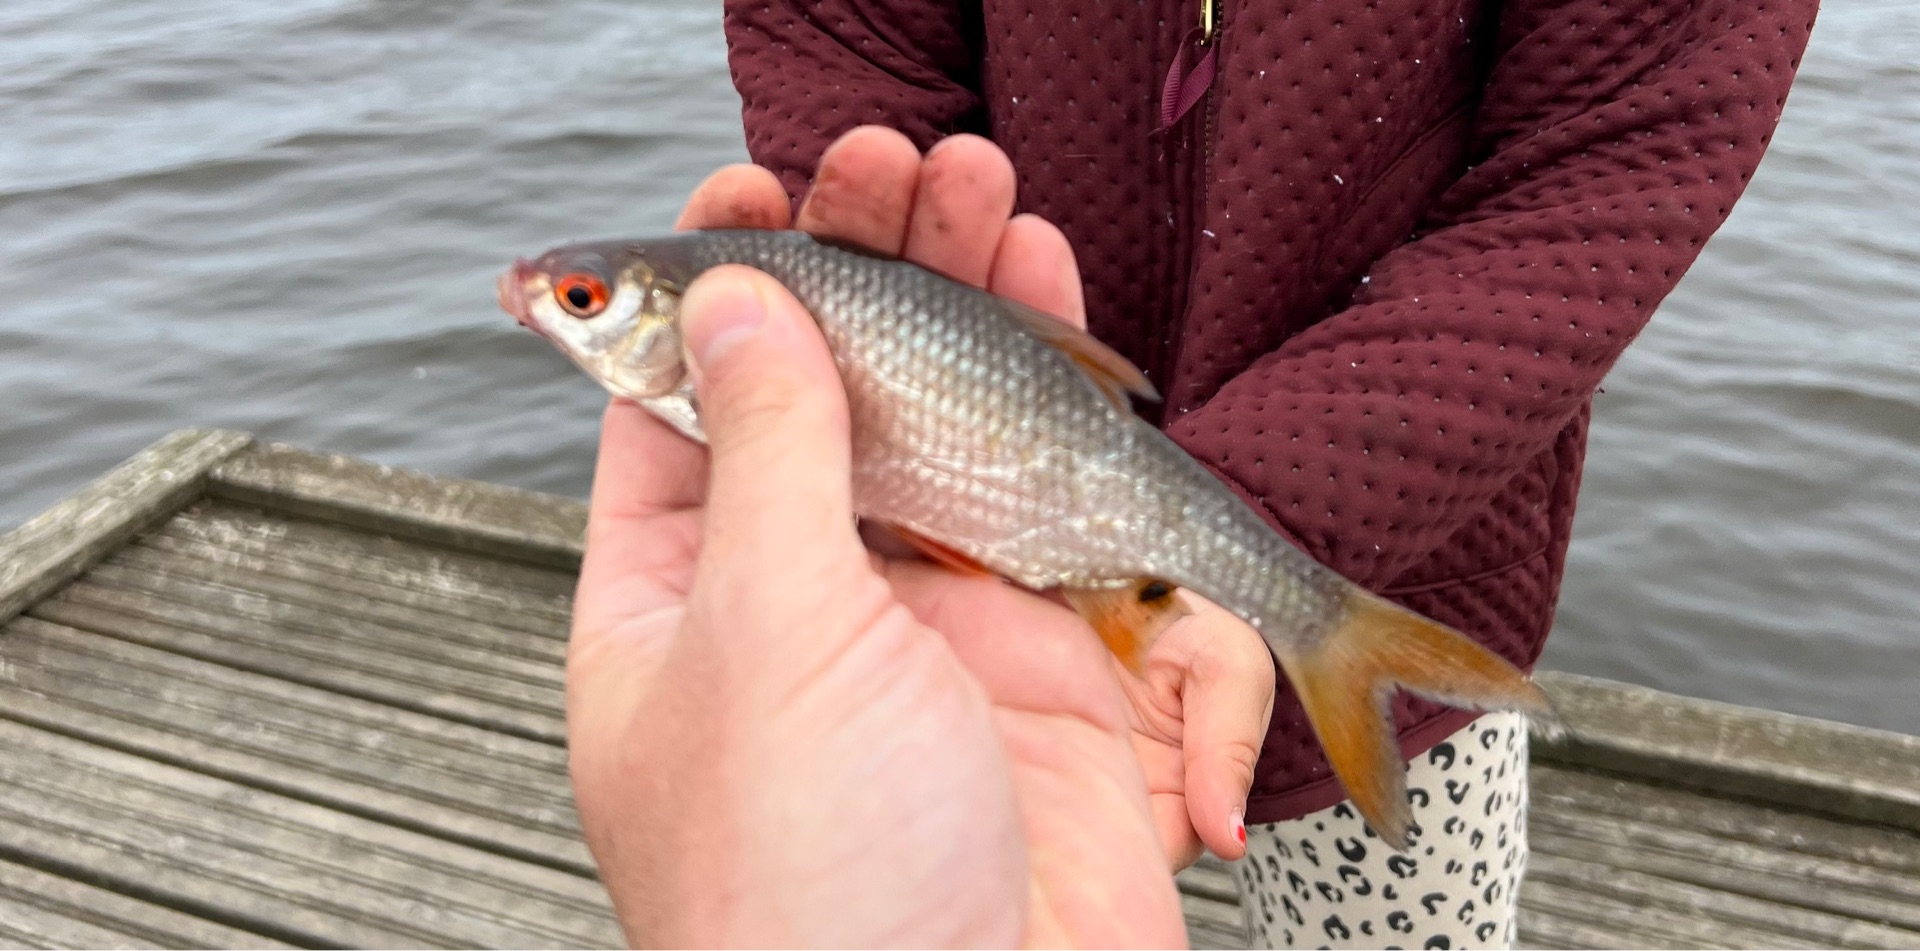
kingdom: Animalia
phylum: Chordata
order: Cypriniformes
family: Cyprinidae
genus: Rutilus
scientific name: Rutilus rutilus
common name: Skalle
